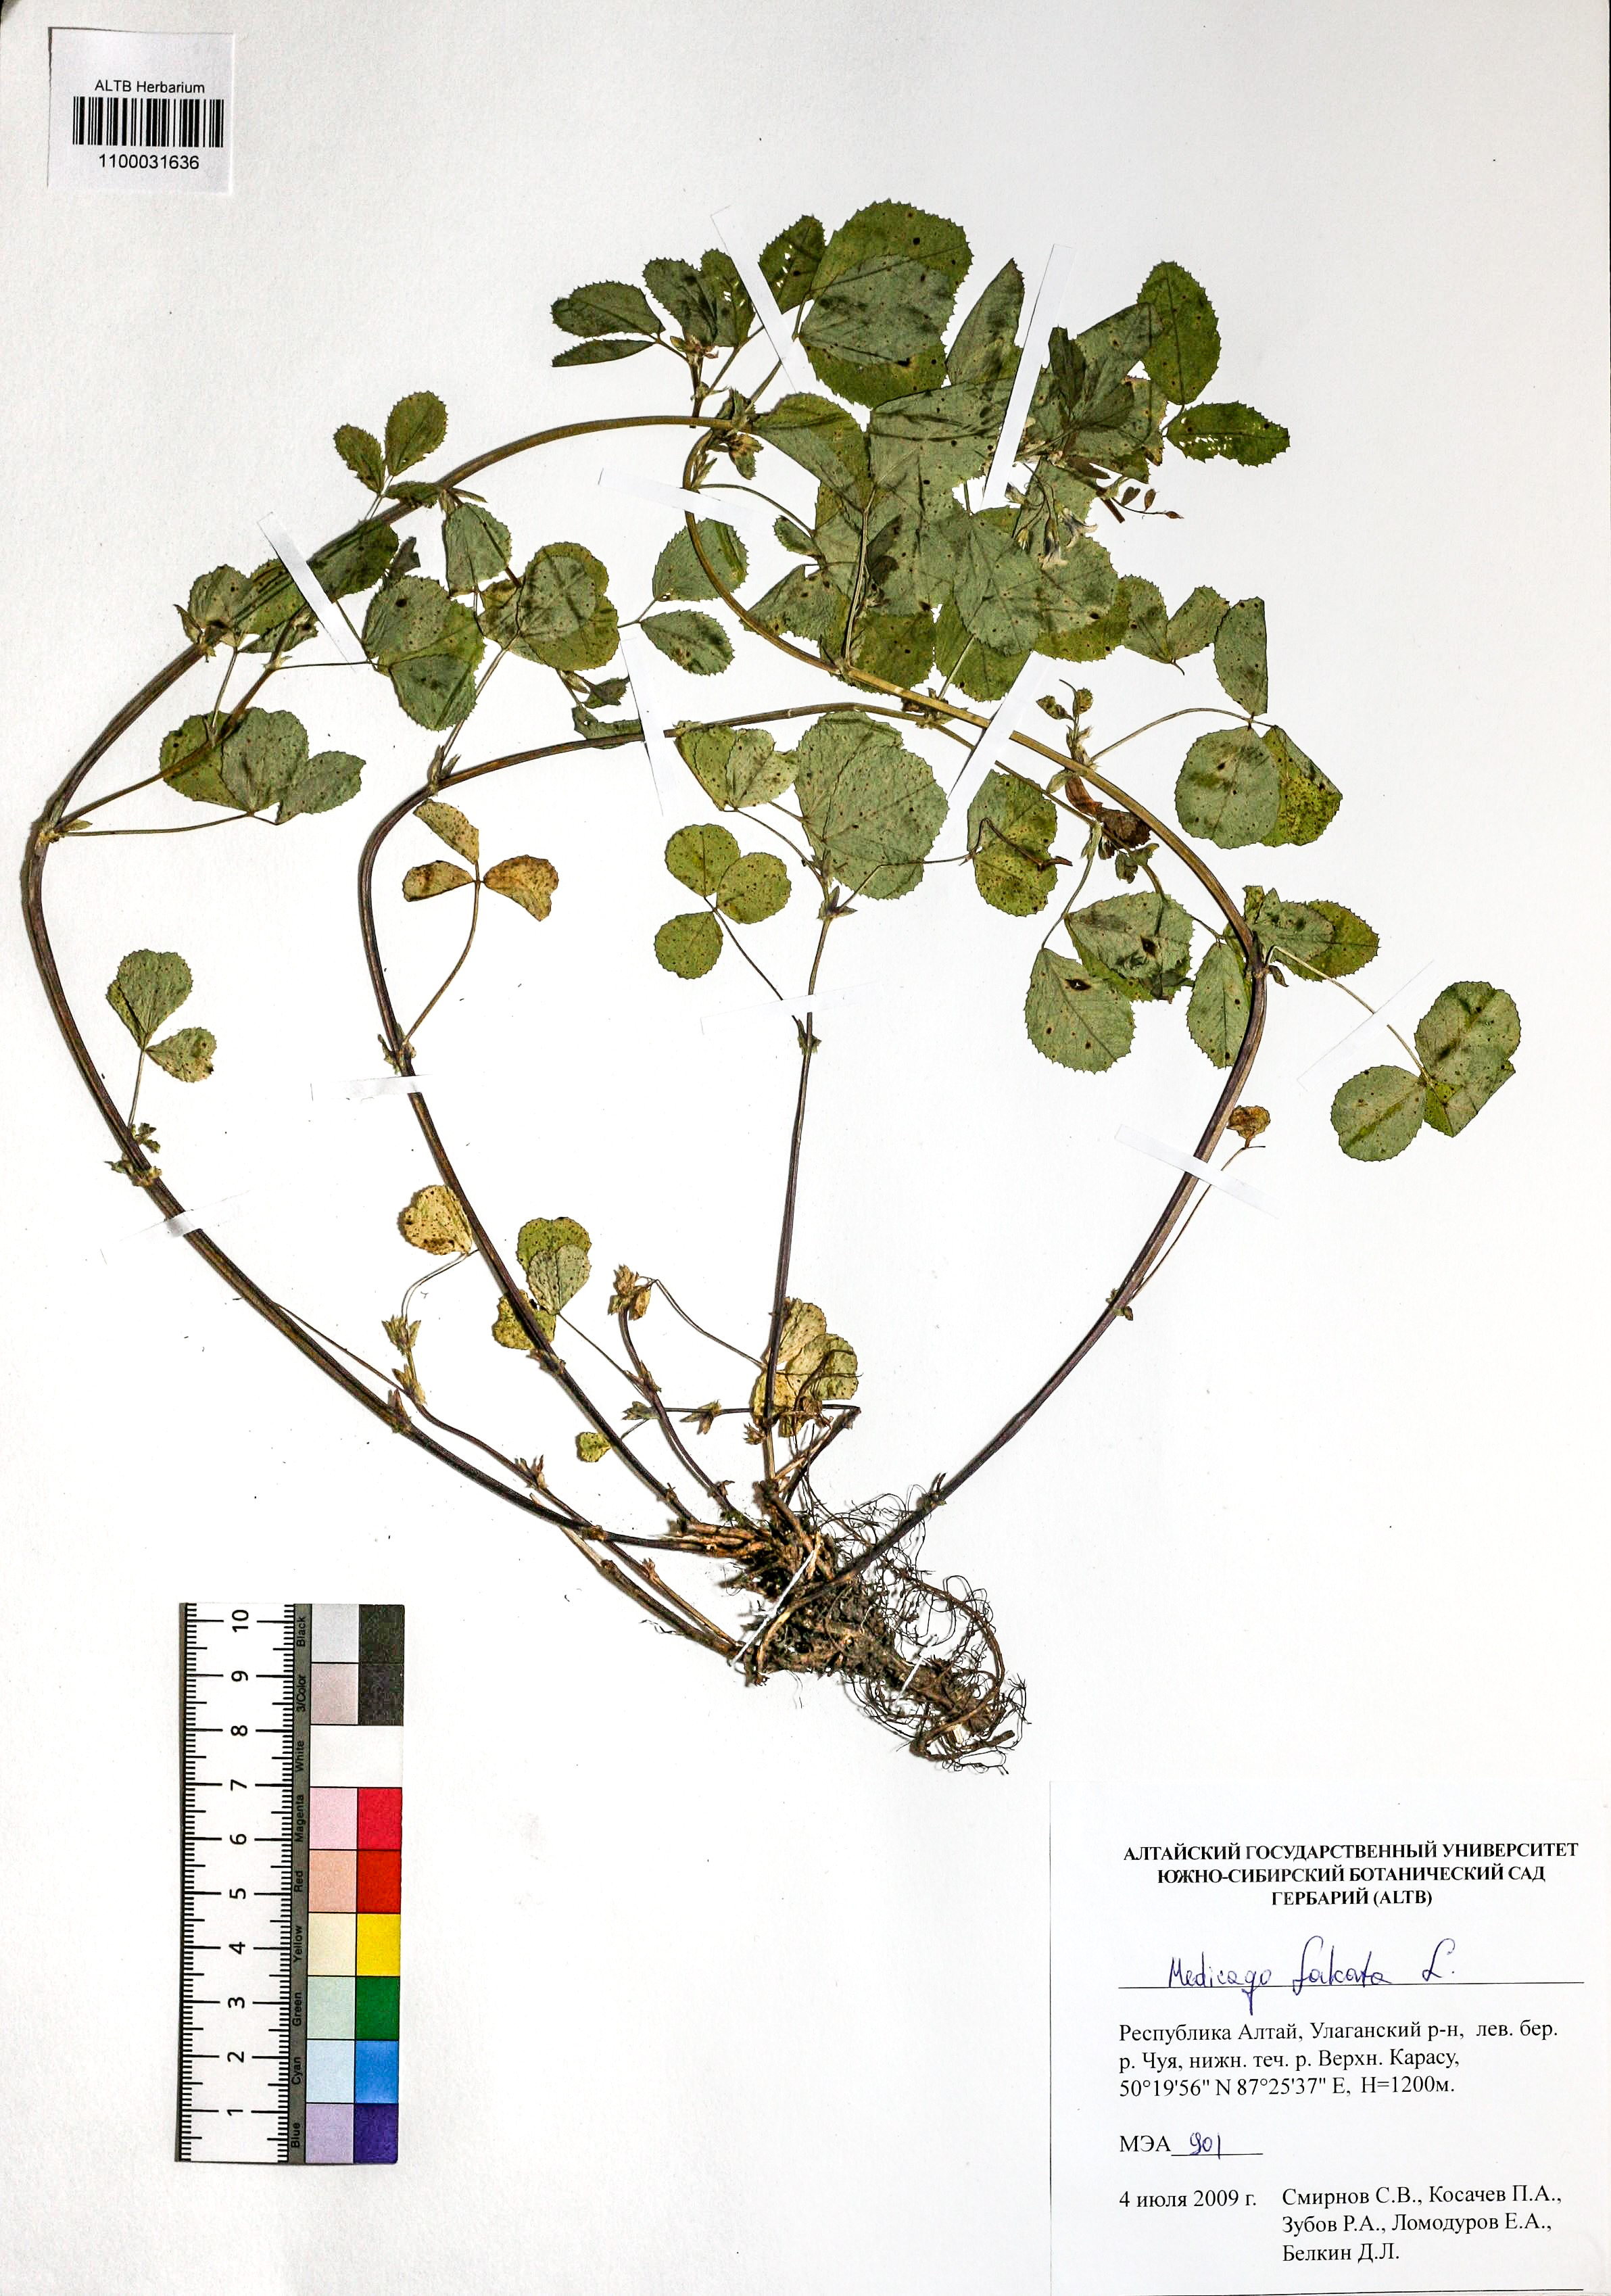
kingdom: Plantae
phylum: Tracheophyta
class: Magnoliopsida
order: Fabales
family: Fabaceae
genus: Medicago
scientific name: Medicago falcata
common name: Sickle medick
